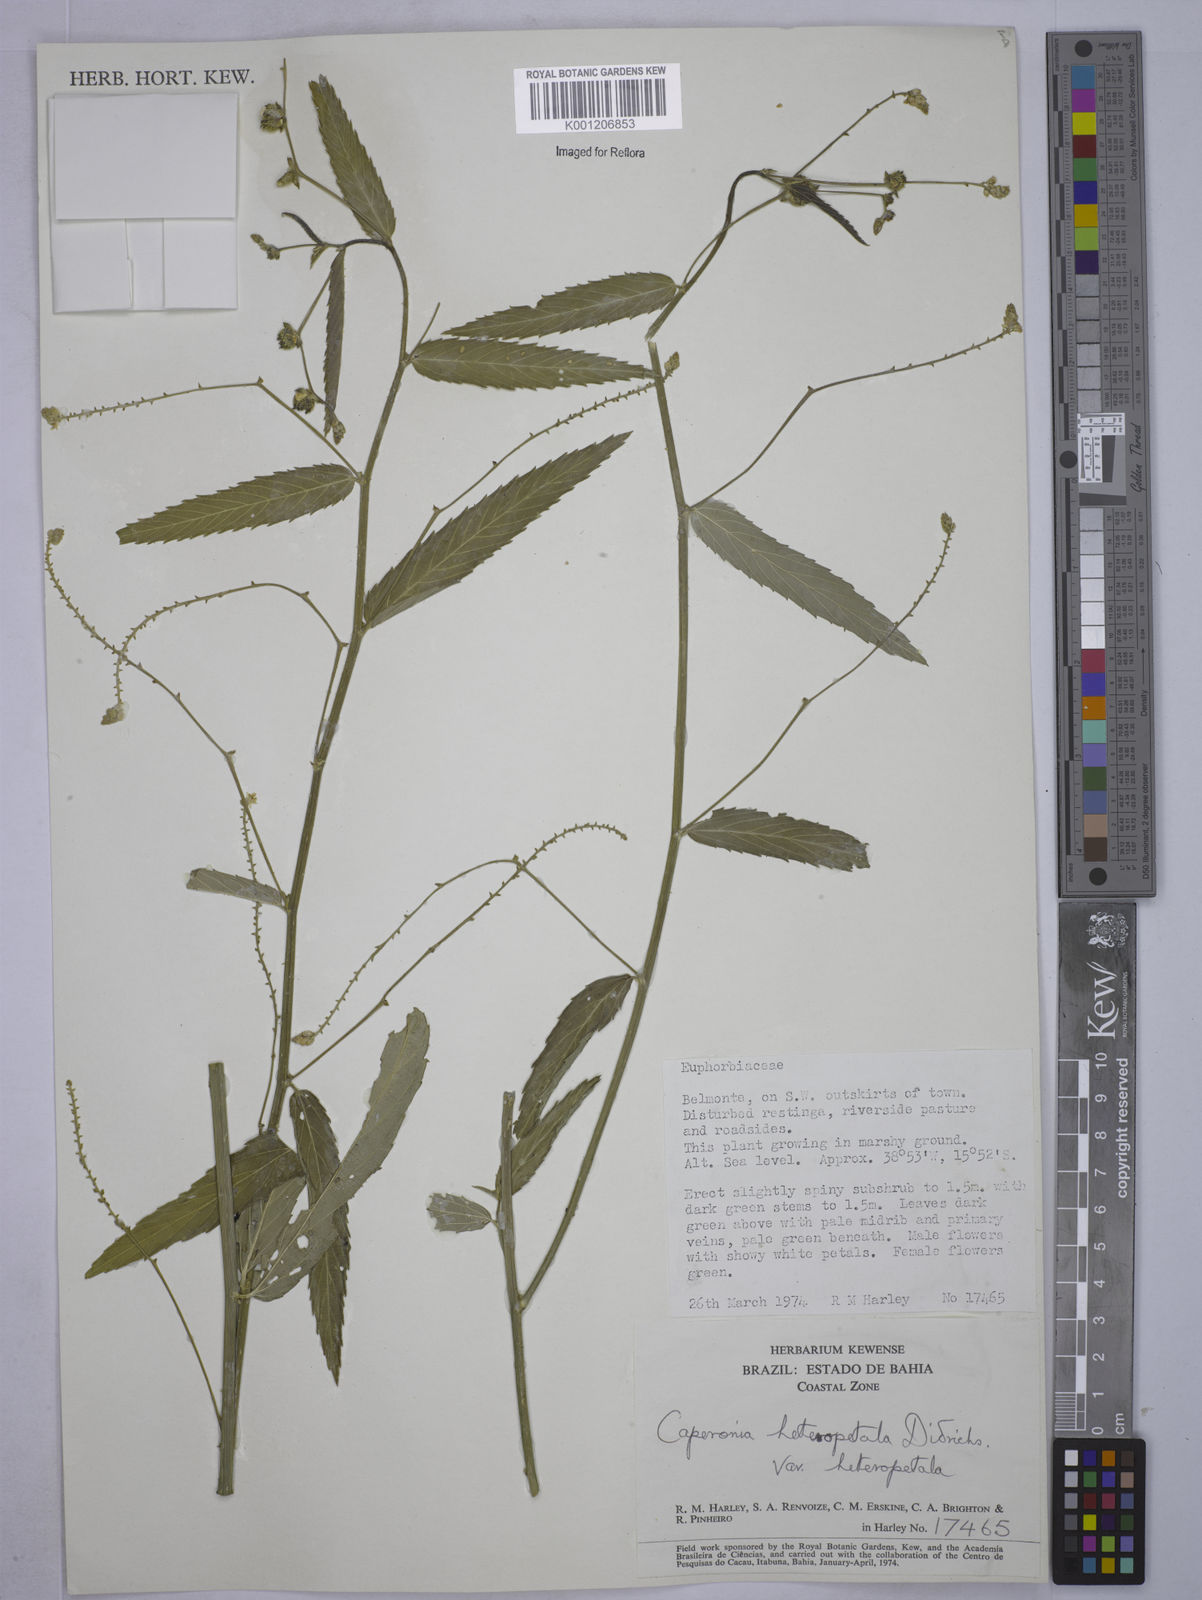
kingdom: Plantae
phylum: Tracheophyta
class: Magnoliopsida
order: Malpighiales
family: Euphorbiaceae
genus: Caperonia
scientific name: Caperonia heteropetala
